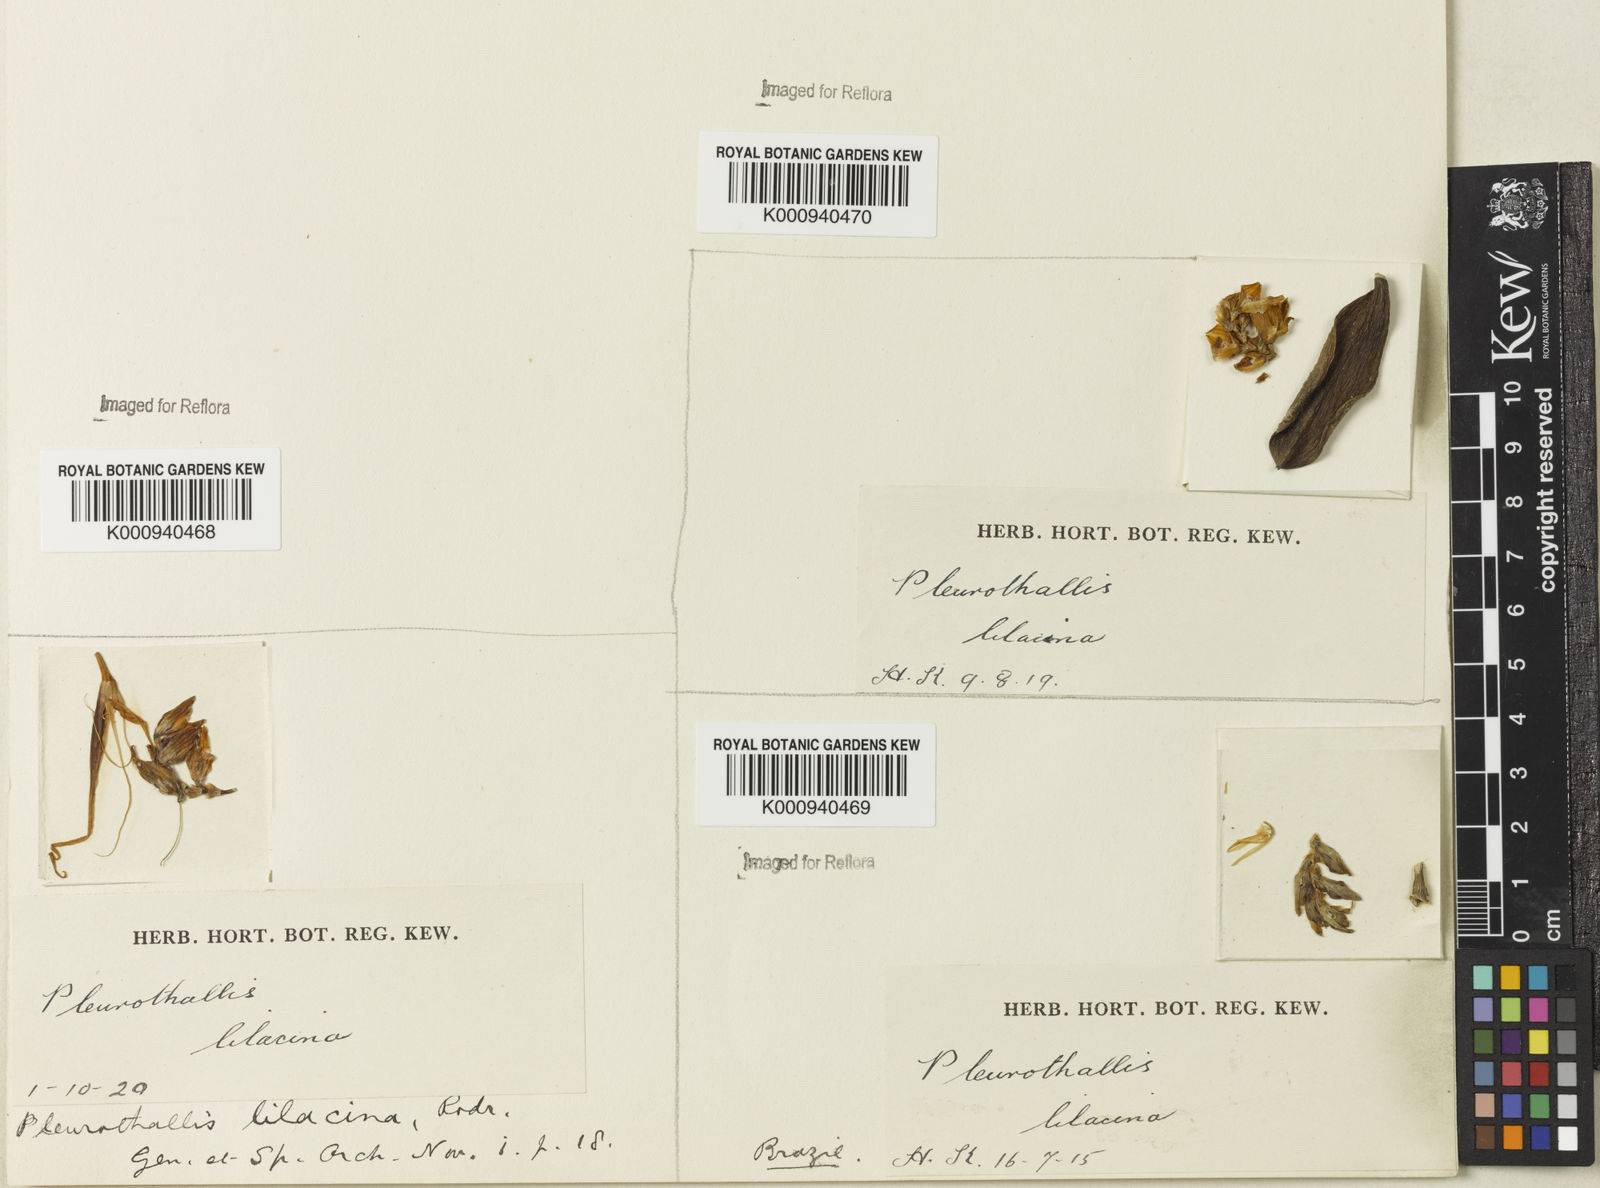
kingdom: Plantae
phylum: Tracheophyta
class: Liliopsida
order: Asparagales
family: Orchidaceae
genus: Acianthera
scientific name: Acianthera recurva
